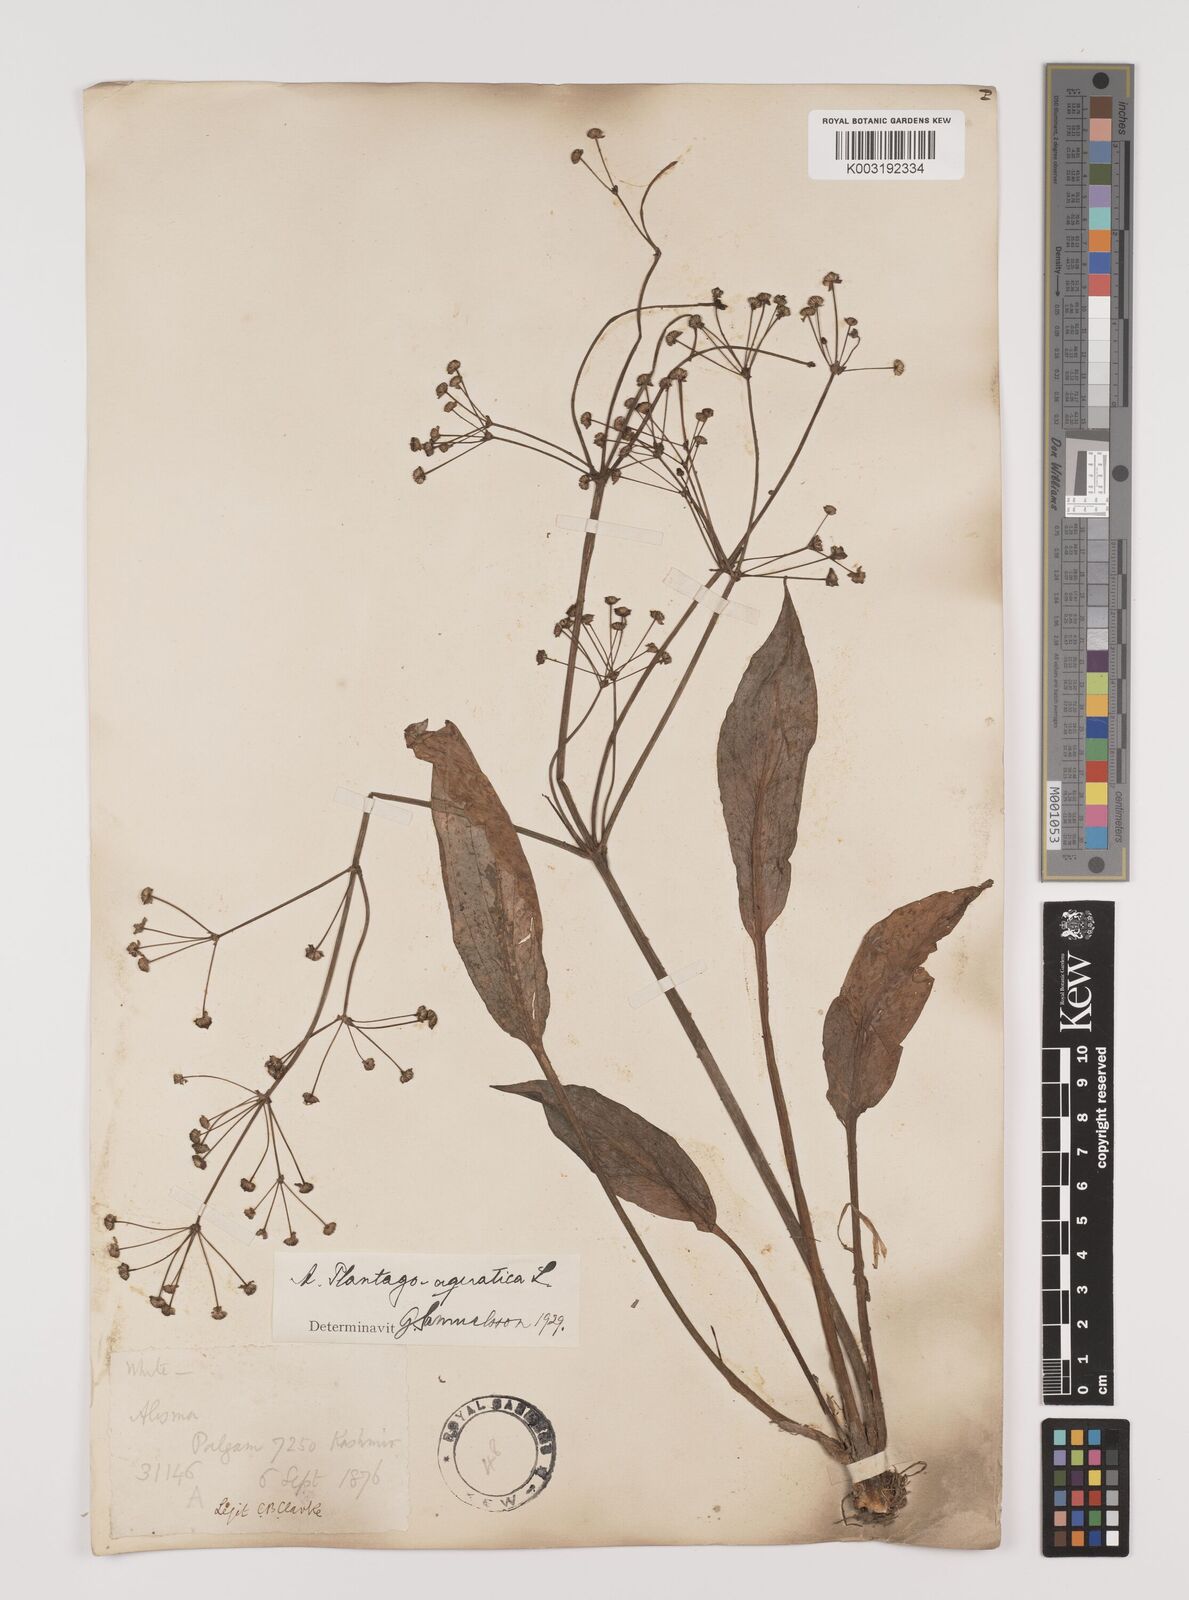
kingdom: Plantae
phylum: Tracheophyta
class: Liliopsida
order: Alismatales
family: Alismataceae
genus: Alisma
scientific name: Alisma plantago-aquatica
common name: Water-plantain
